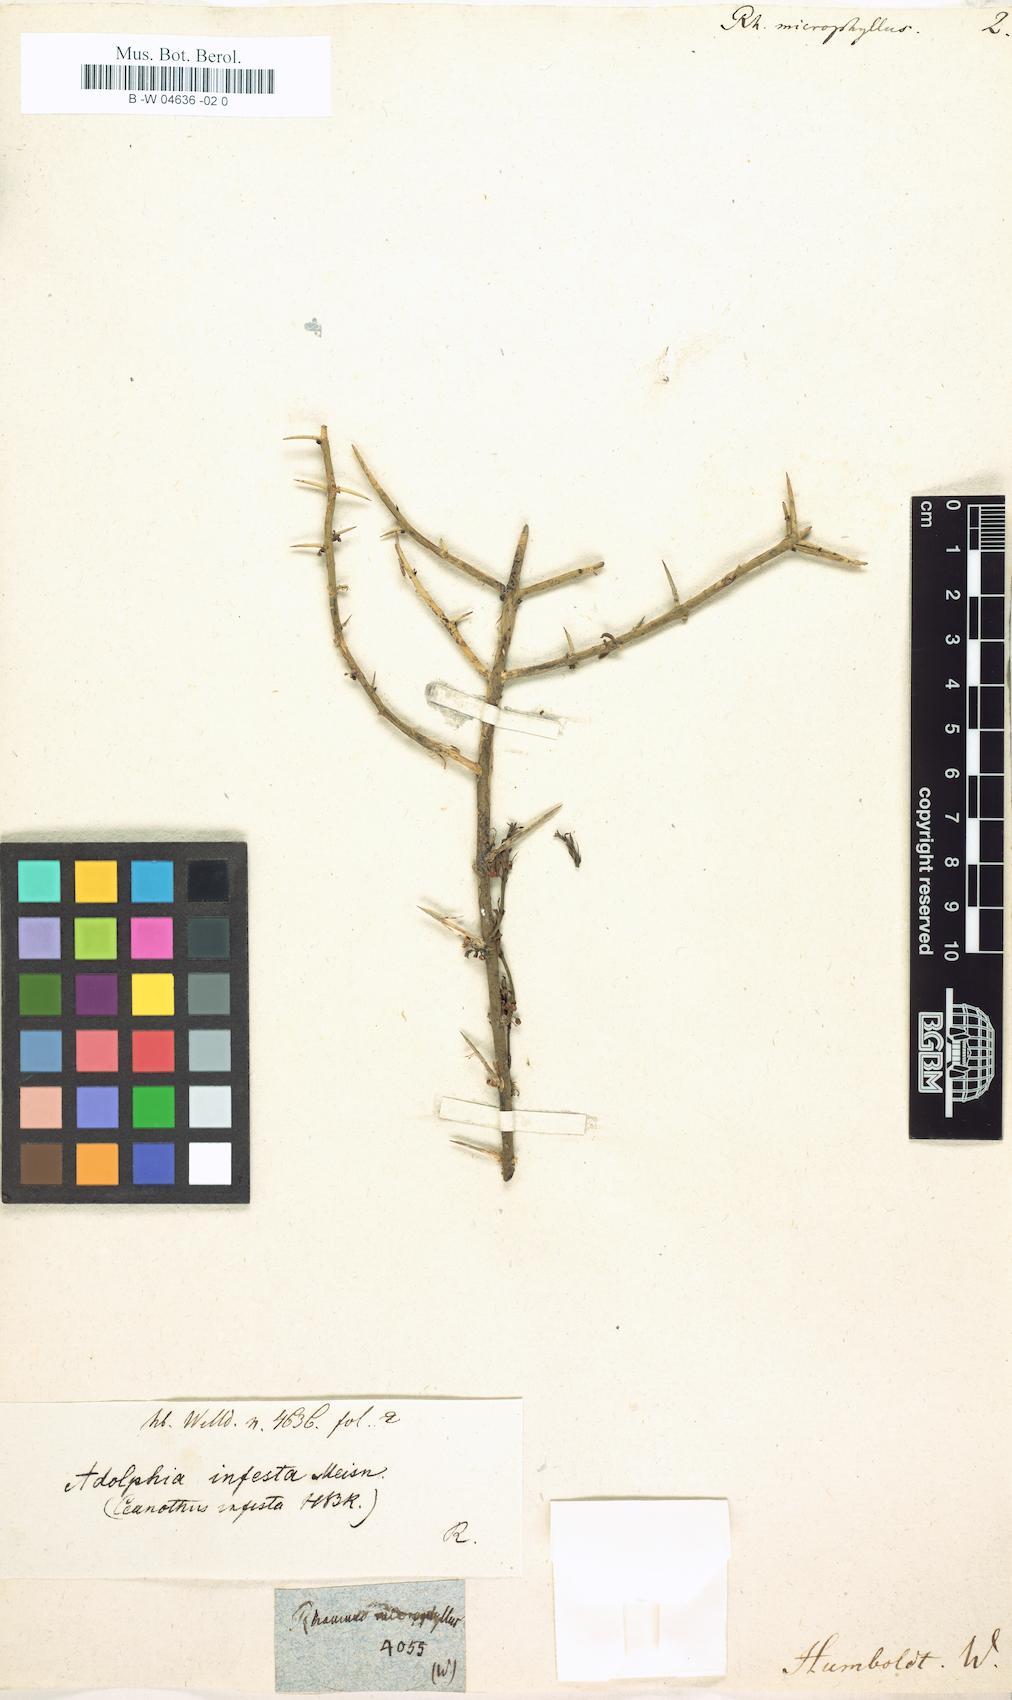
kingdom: Plantae
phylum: Tracheophyta
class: Magnoliopsida
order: Rosales
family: Rhamnaceae
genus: Rhamnus
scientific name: Rhamnus microphylla
